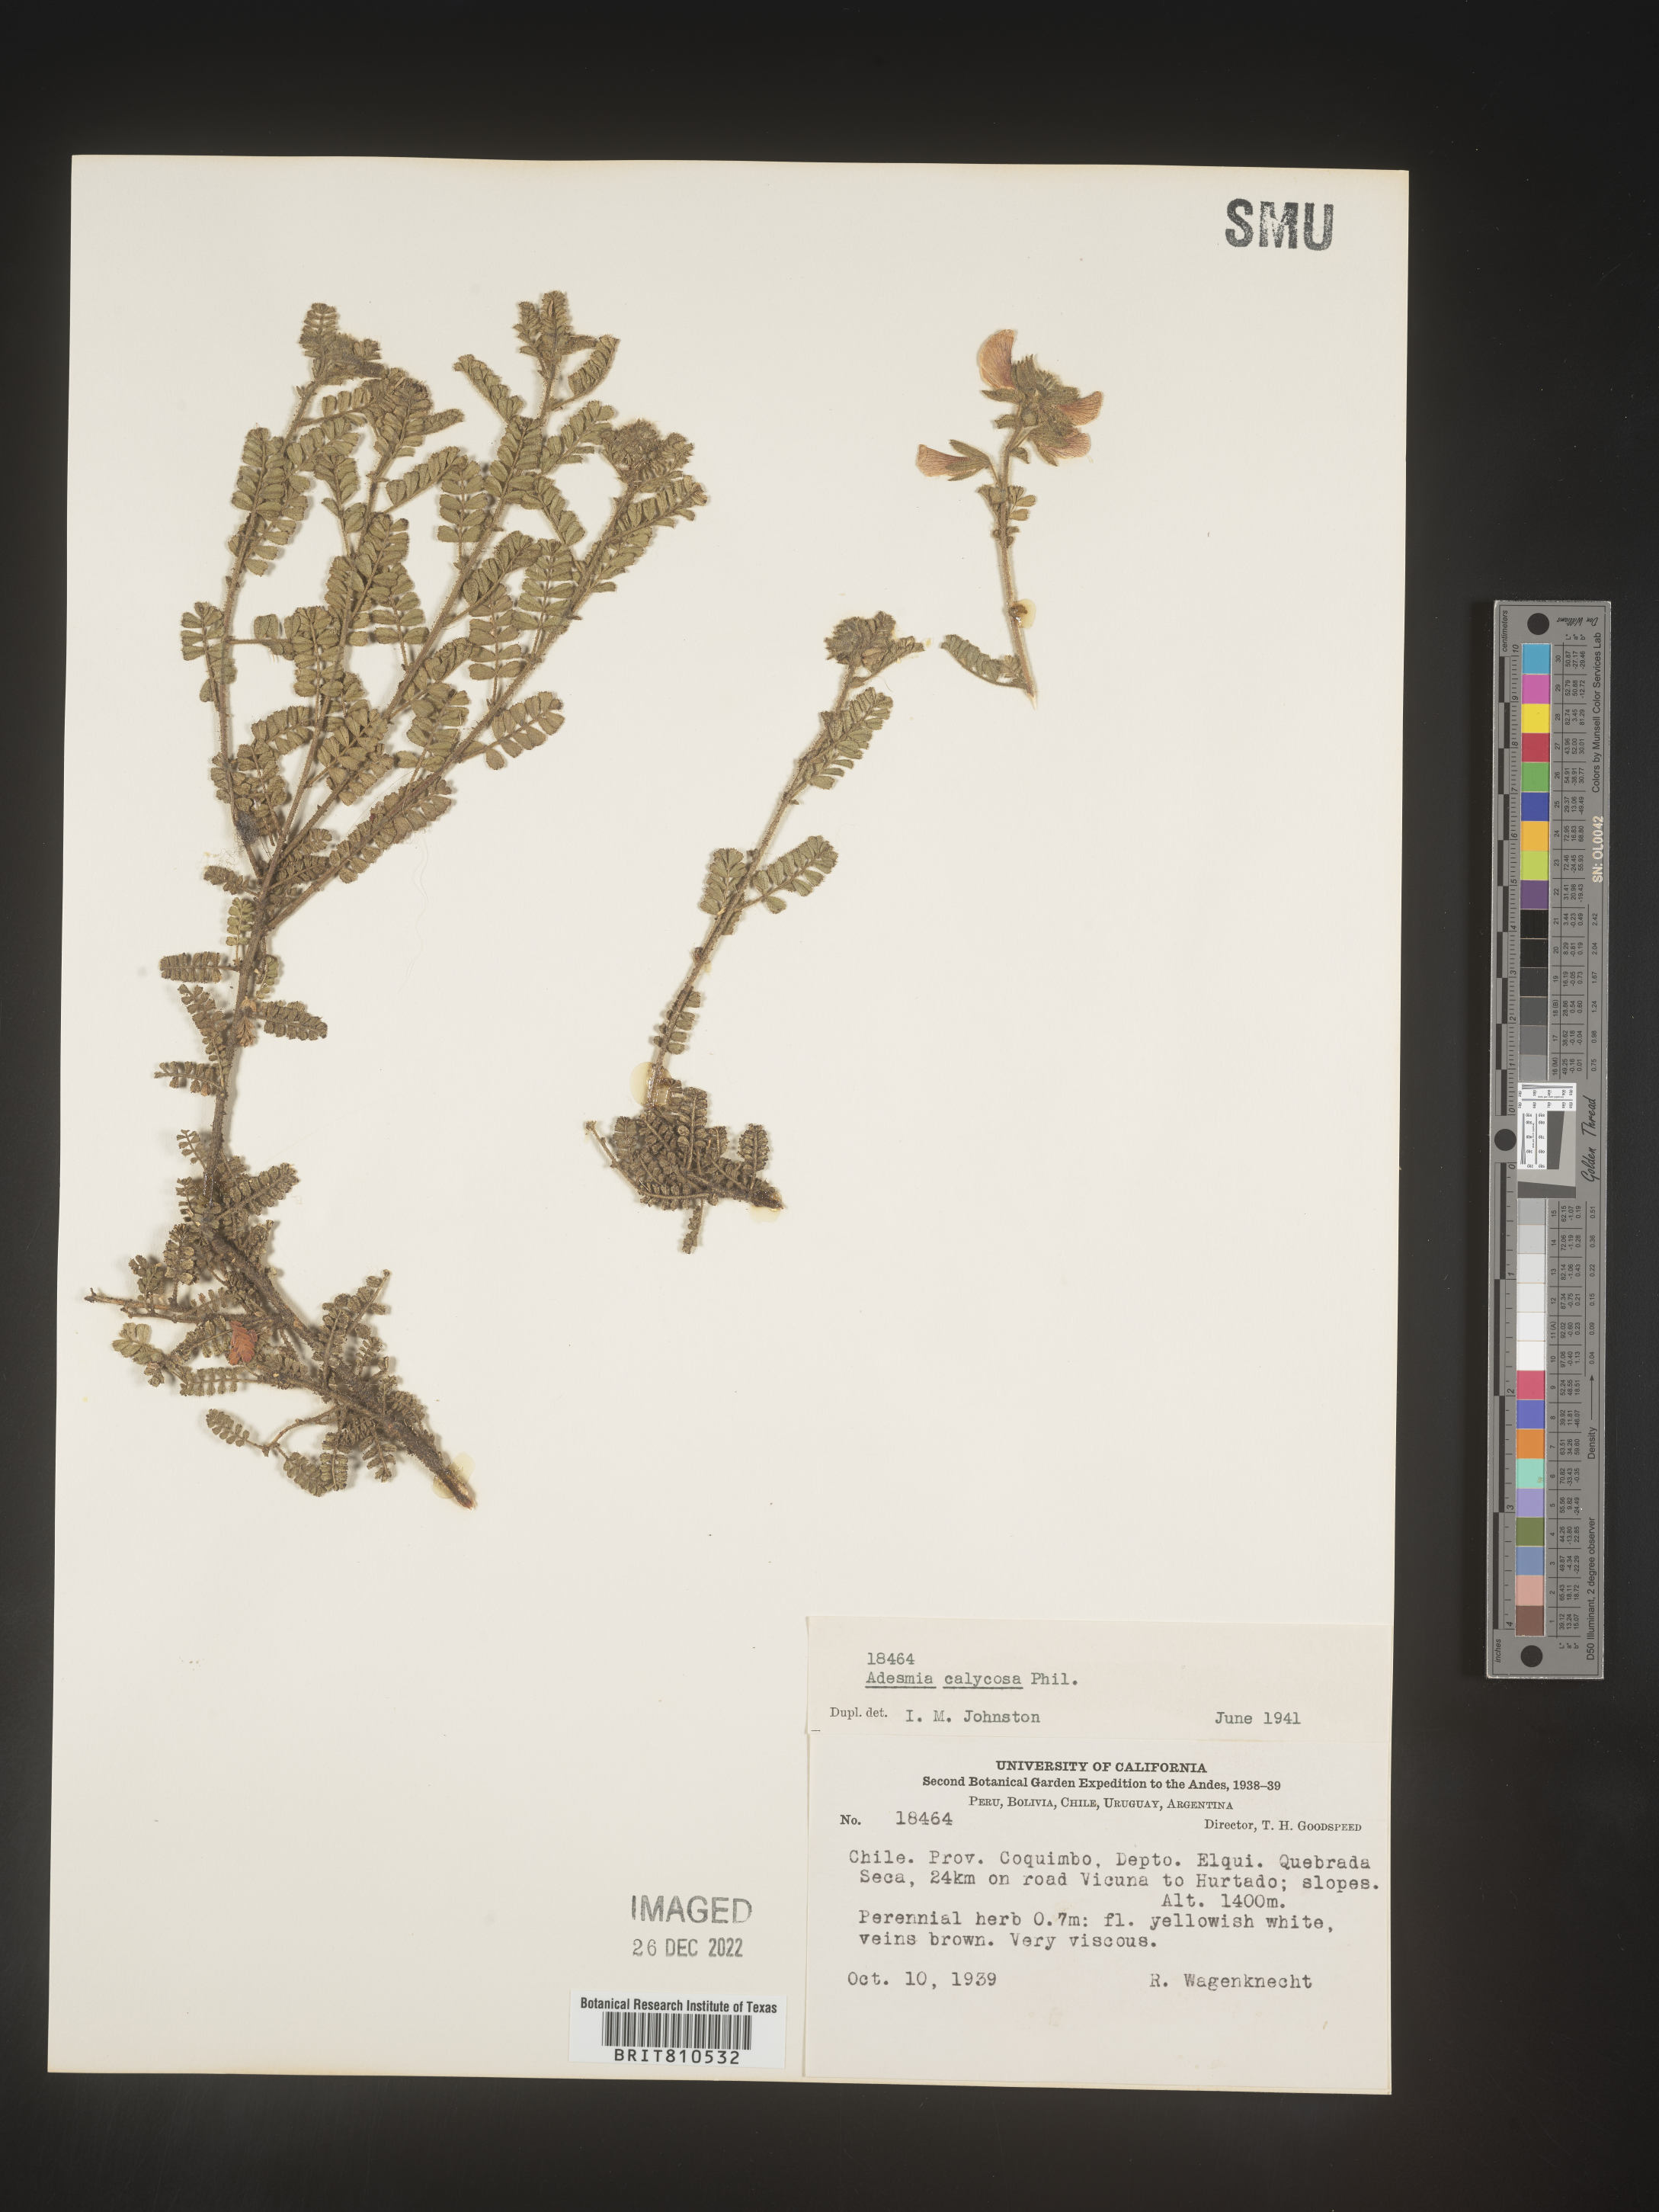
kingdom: Plantae
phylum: Tracheophyta
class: Magnoliopsida
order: Fabales
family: Fabaceae
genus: Adesmia
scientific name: Adesmia
